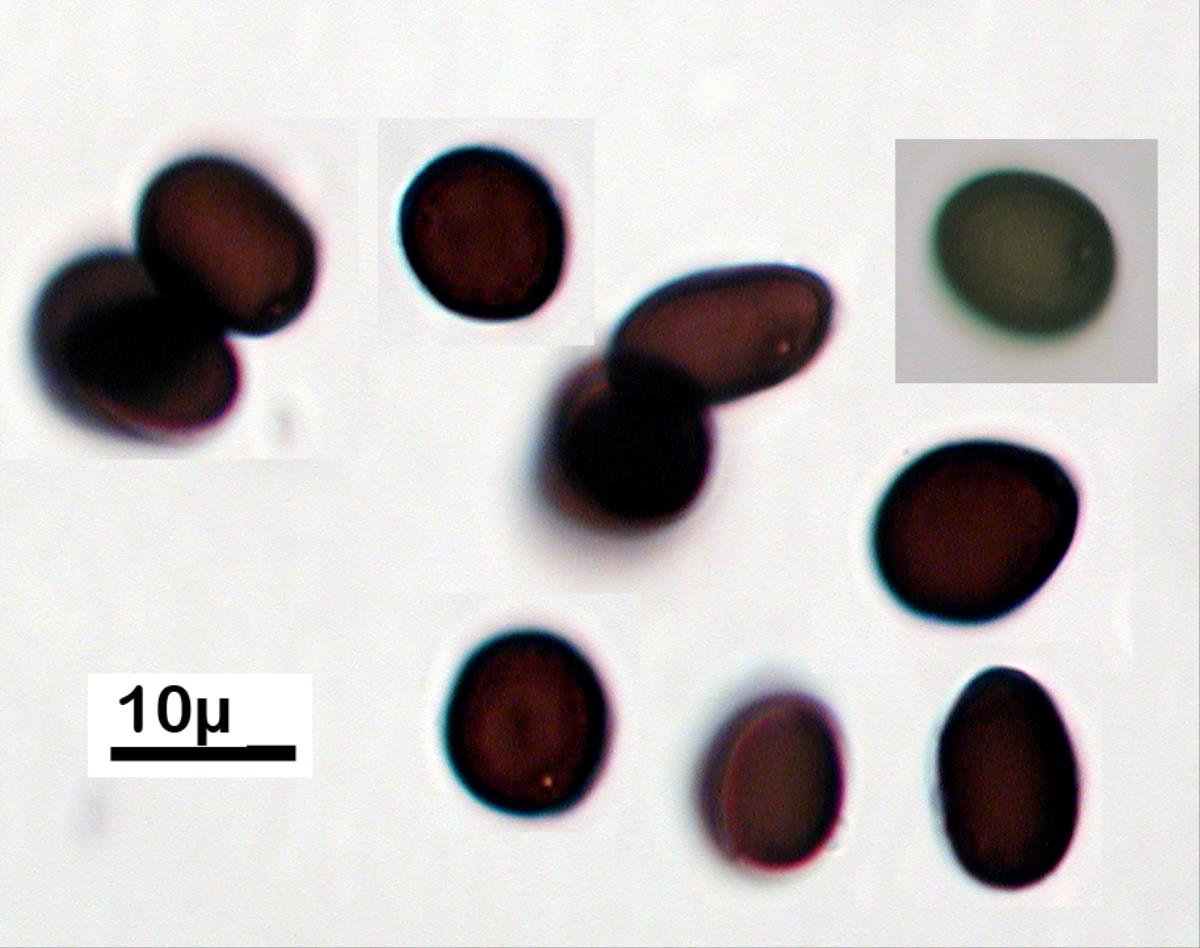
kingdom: Fungi
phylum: Ascomycota
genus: Gilmaniella
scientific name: Gilmaniella
